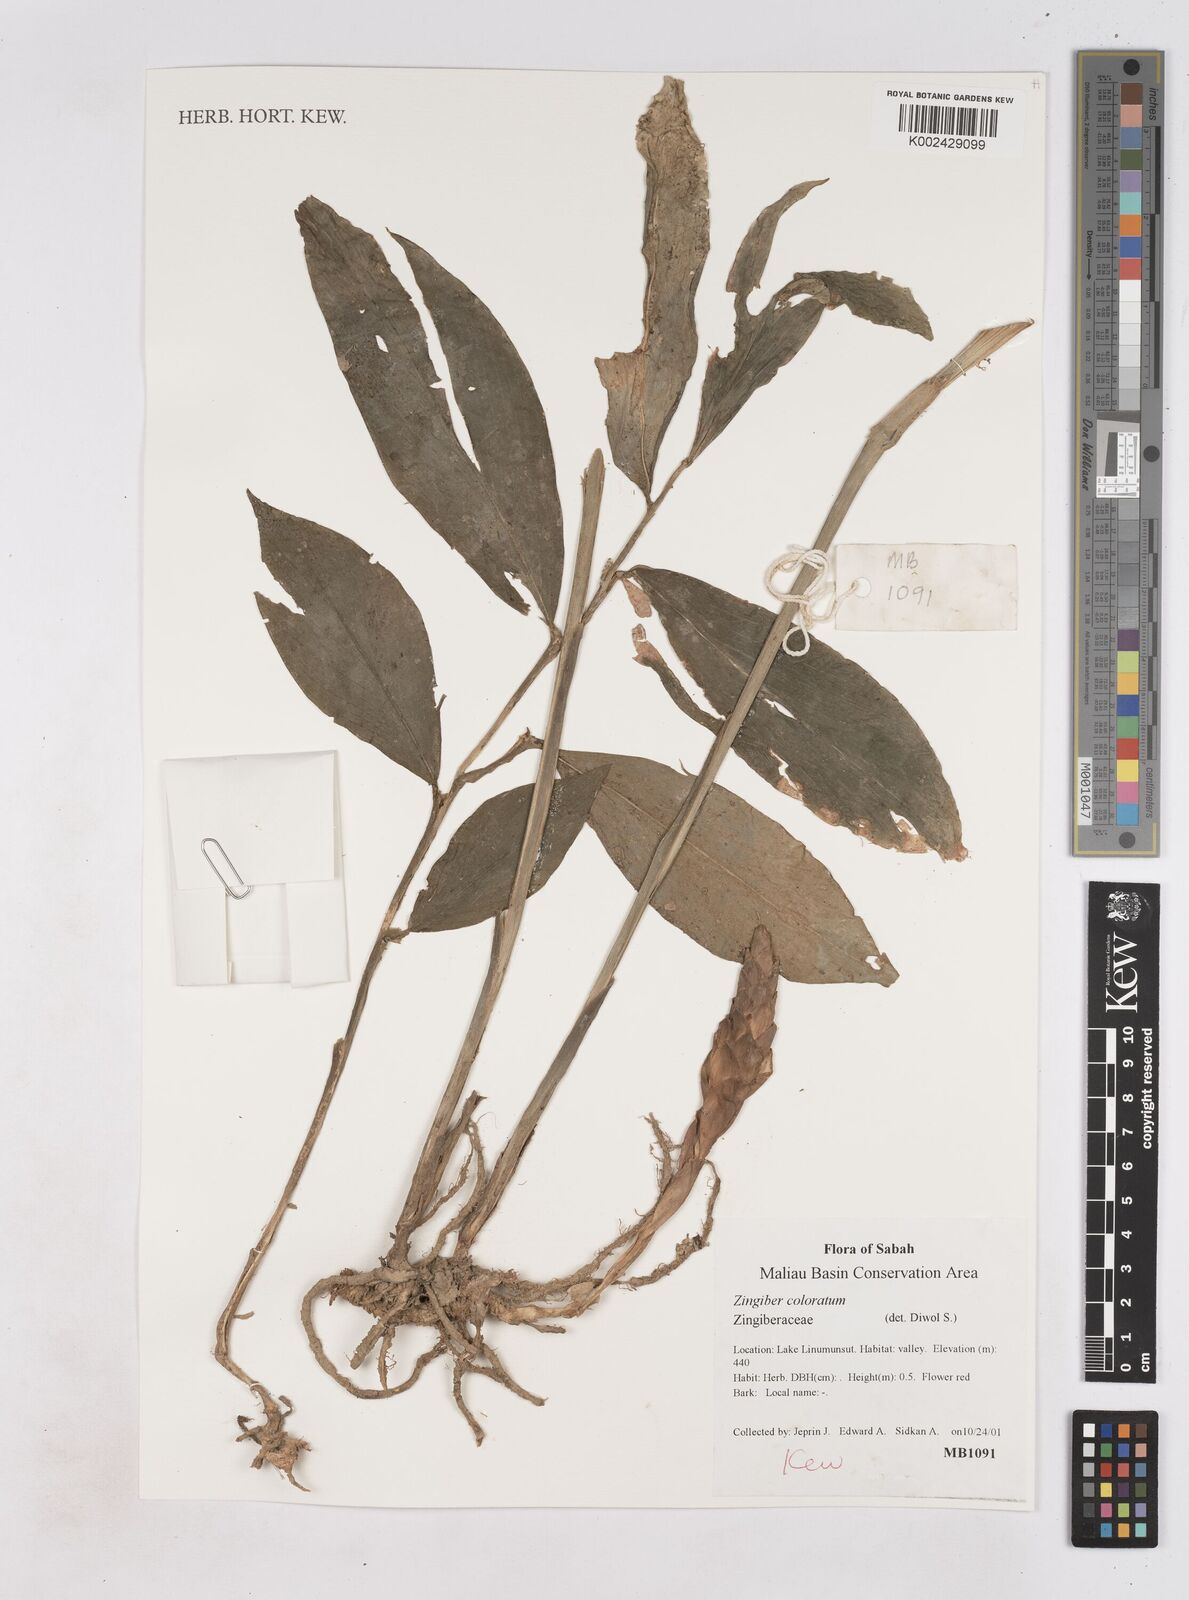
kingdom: Plantae
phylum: Tracheophyta
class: Liliopsida
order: Zingiberales
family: Zingiberaceae
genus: Zingiber
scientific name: Zingiber coloratum
